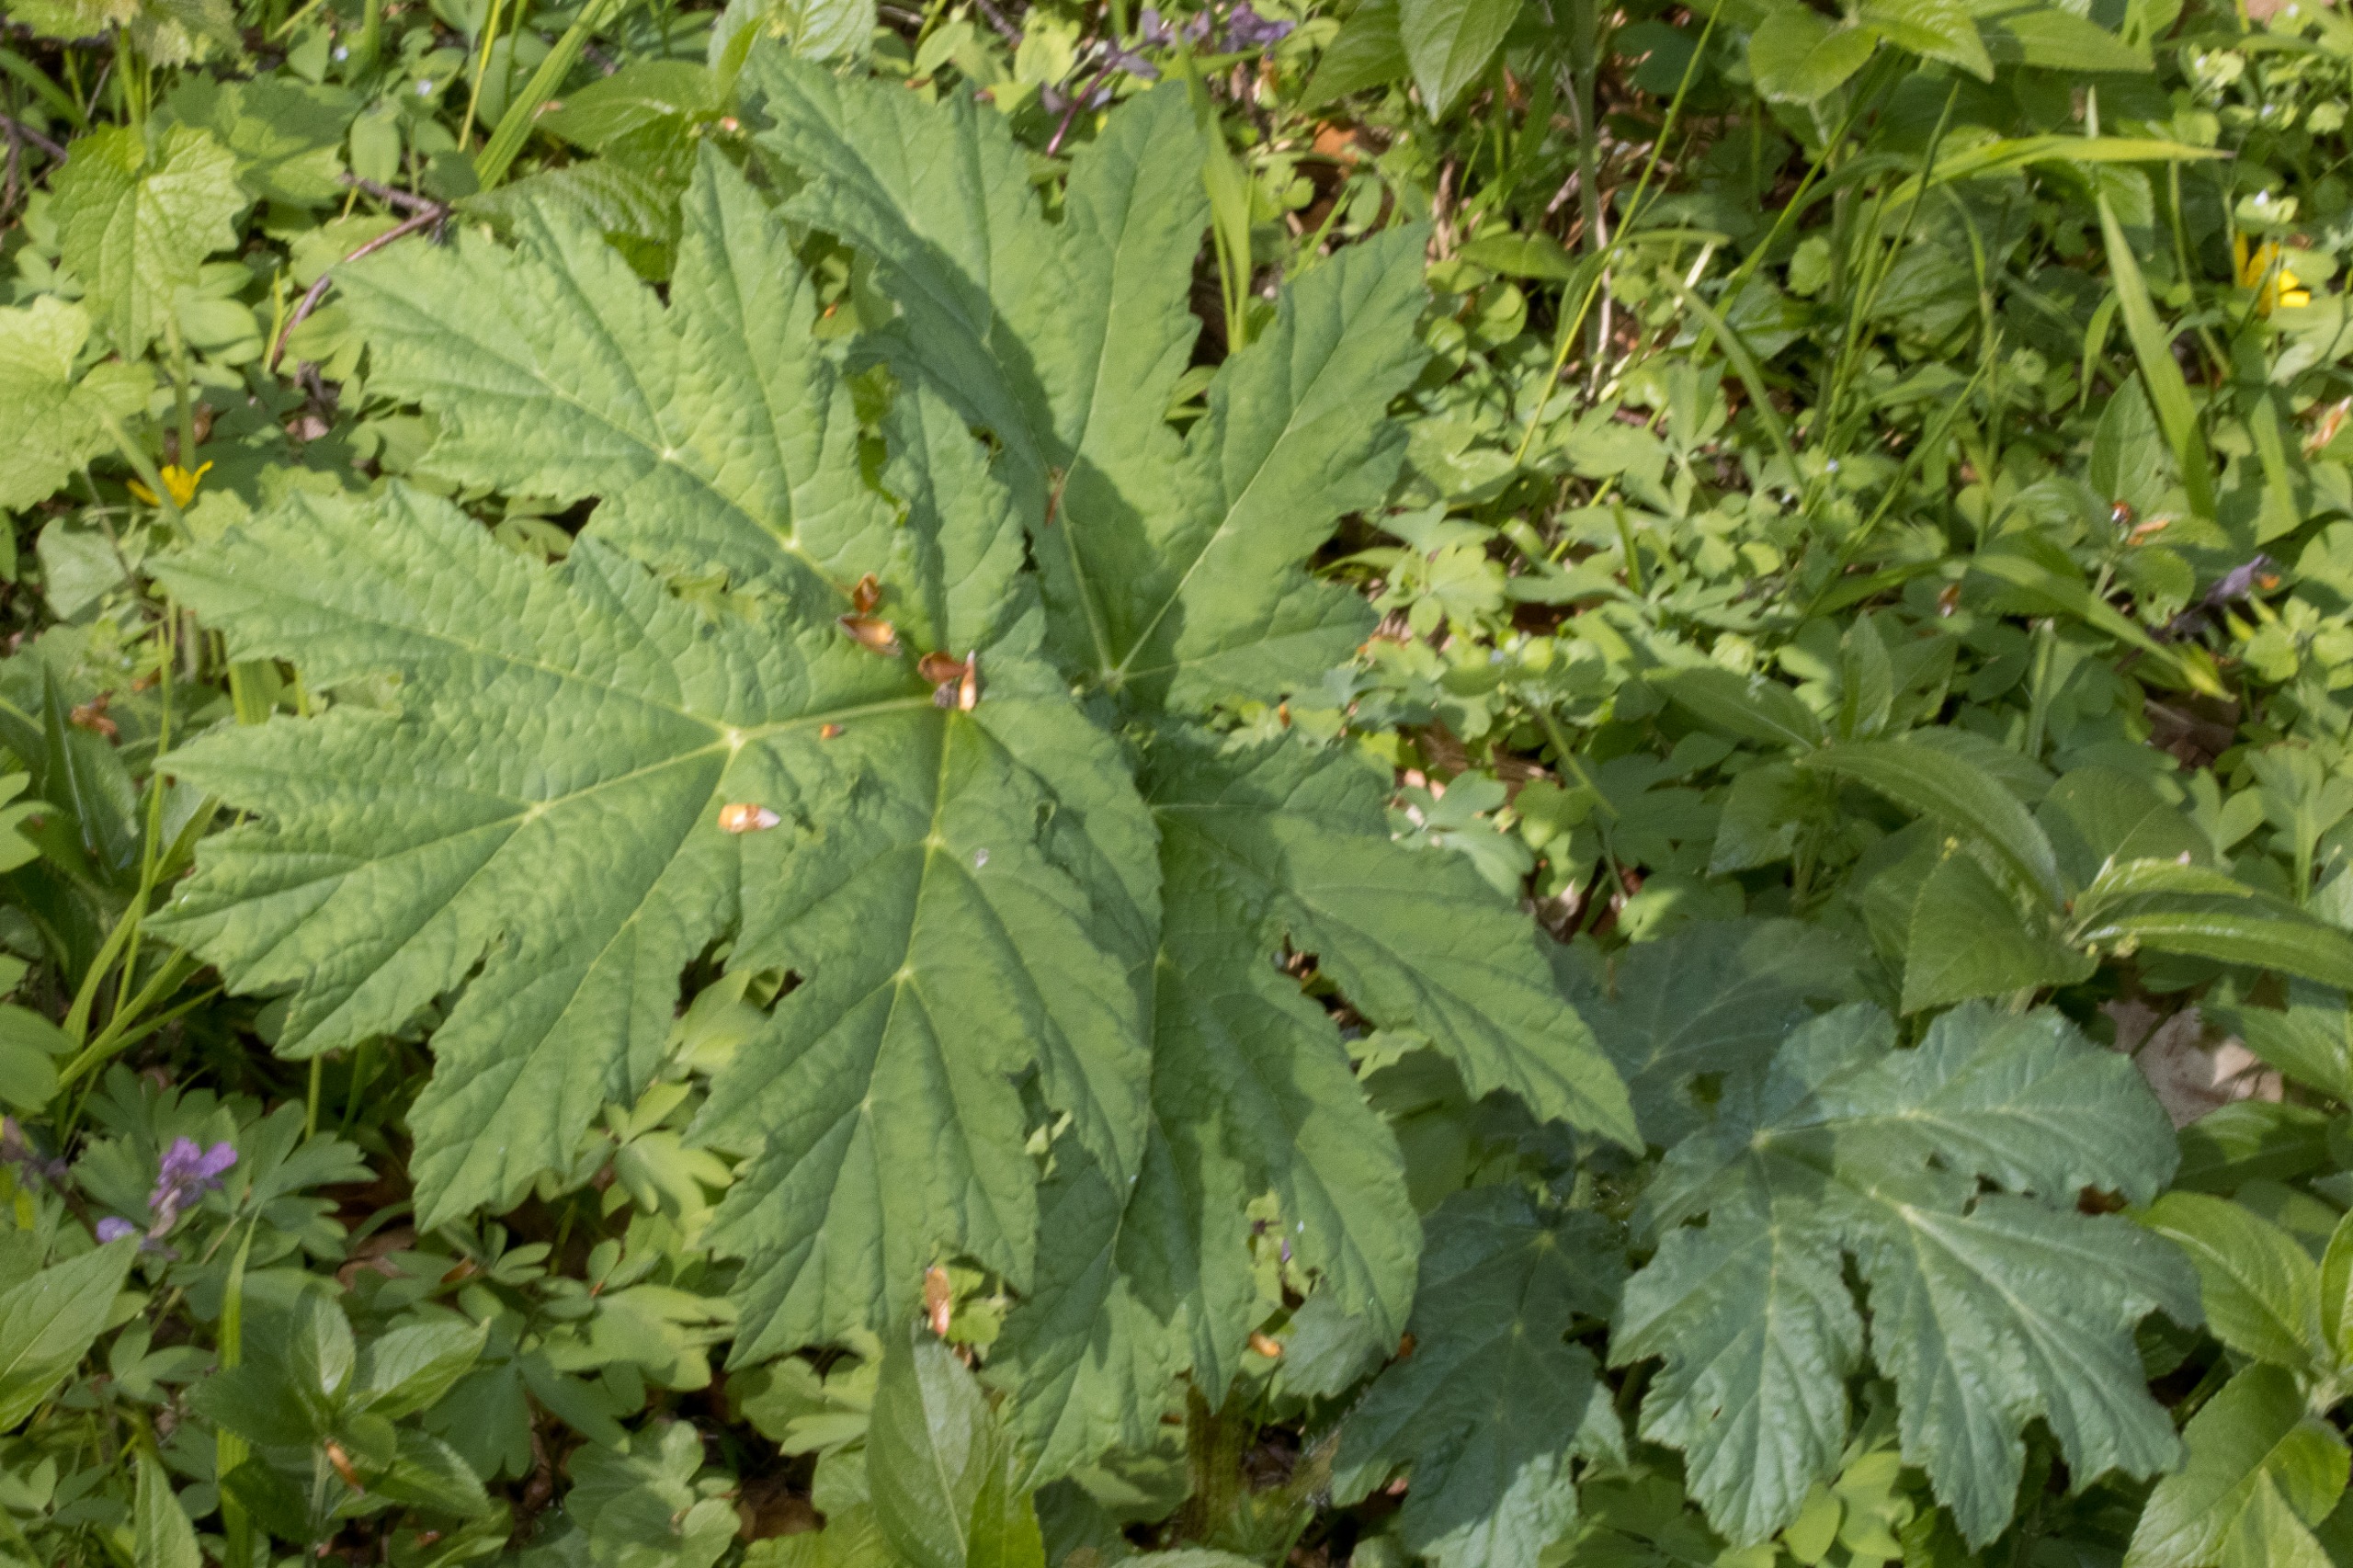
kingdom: Plantae
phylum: Tracheophyta
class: Magnoliopsida
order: Apiales
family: Apiaceae
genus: Heracleum
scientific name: Heracleum mantegazzianum
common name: Kæmpe-bjørneklo
